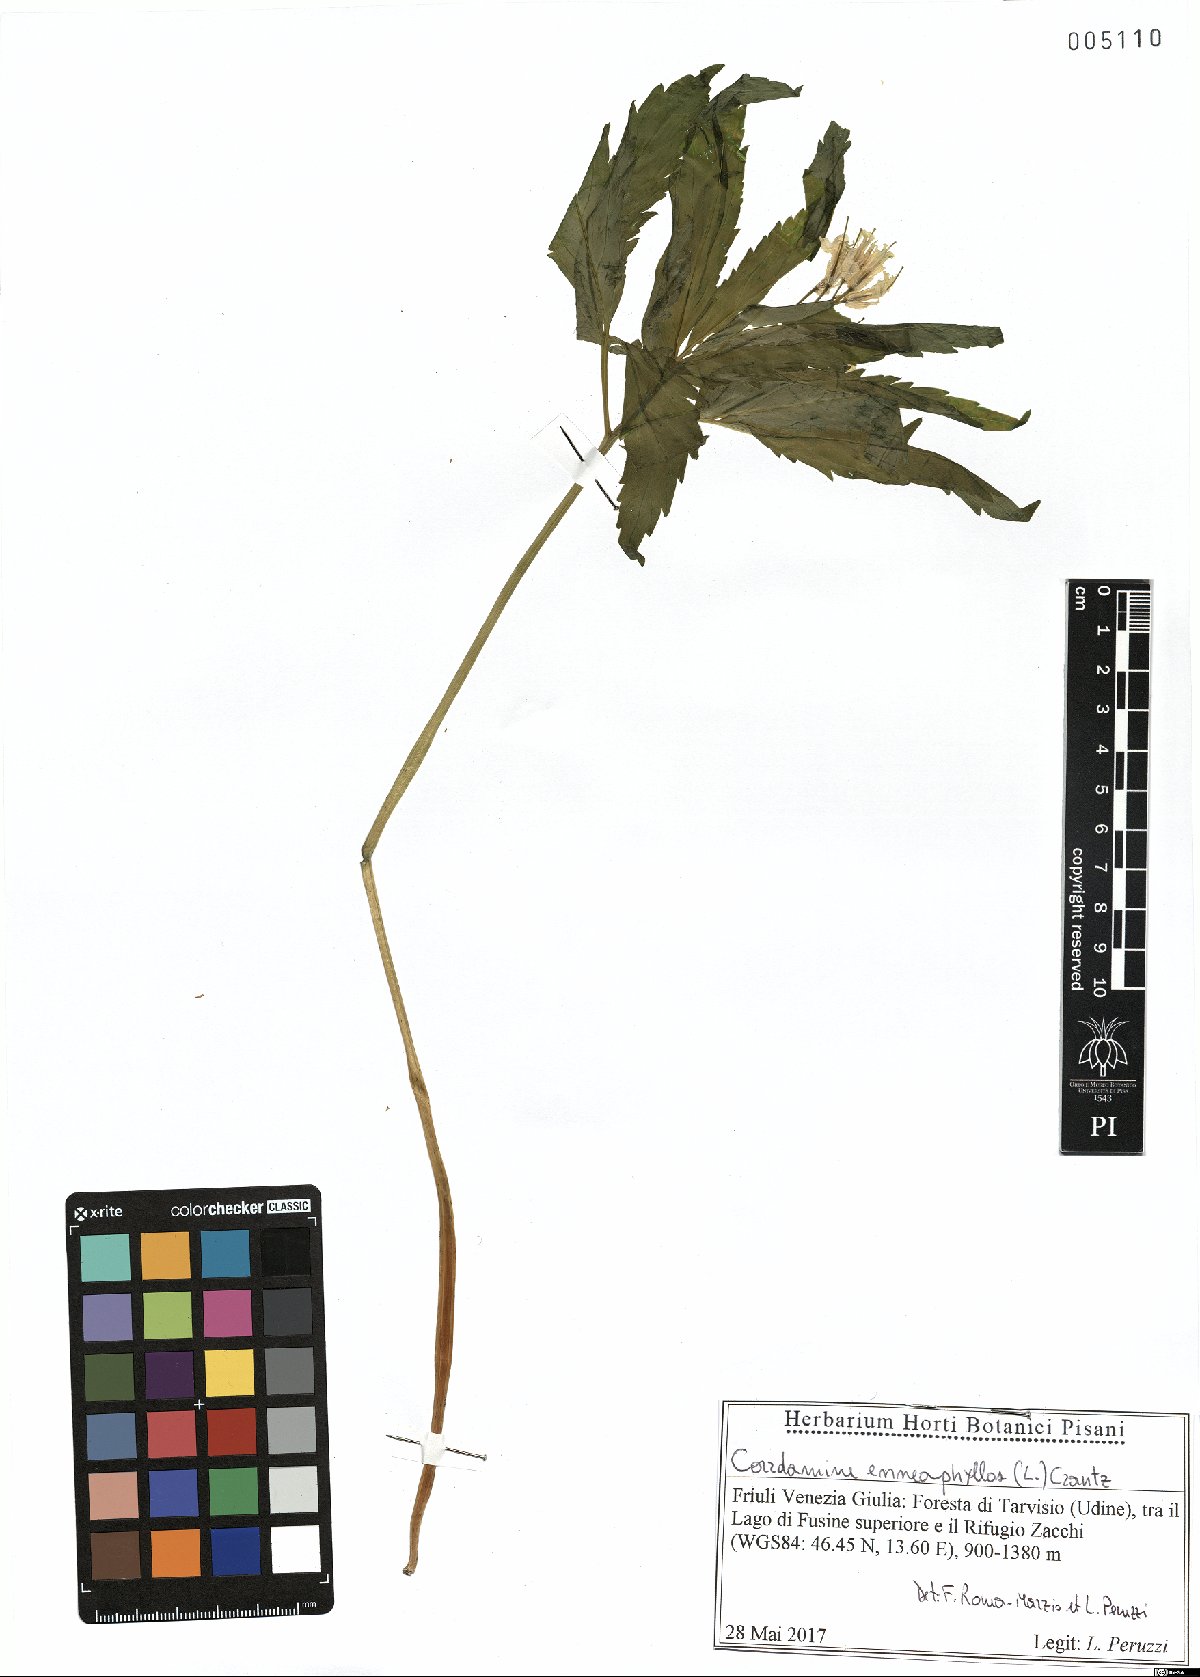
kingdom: Plantae
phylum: Tracheophyta
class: Magnoliopsida
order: Brassicales
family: Brassicaceae
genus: Cardamine
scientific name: Cardamine enneaphyllos
